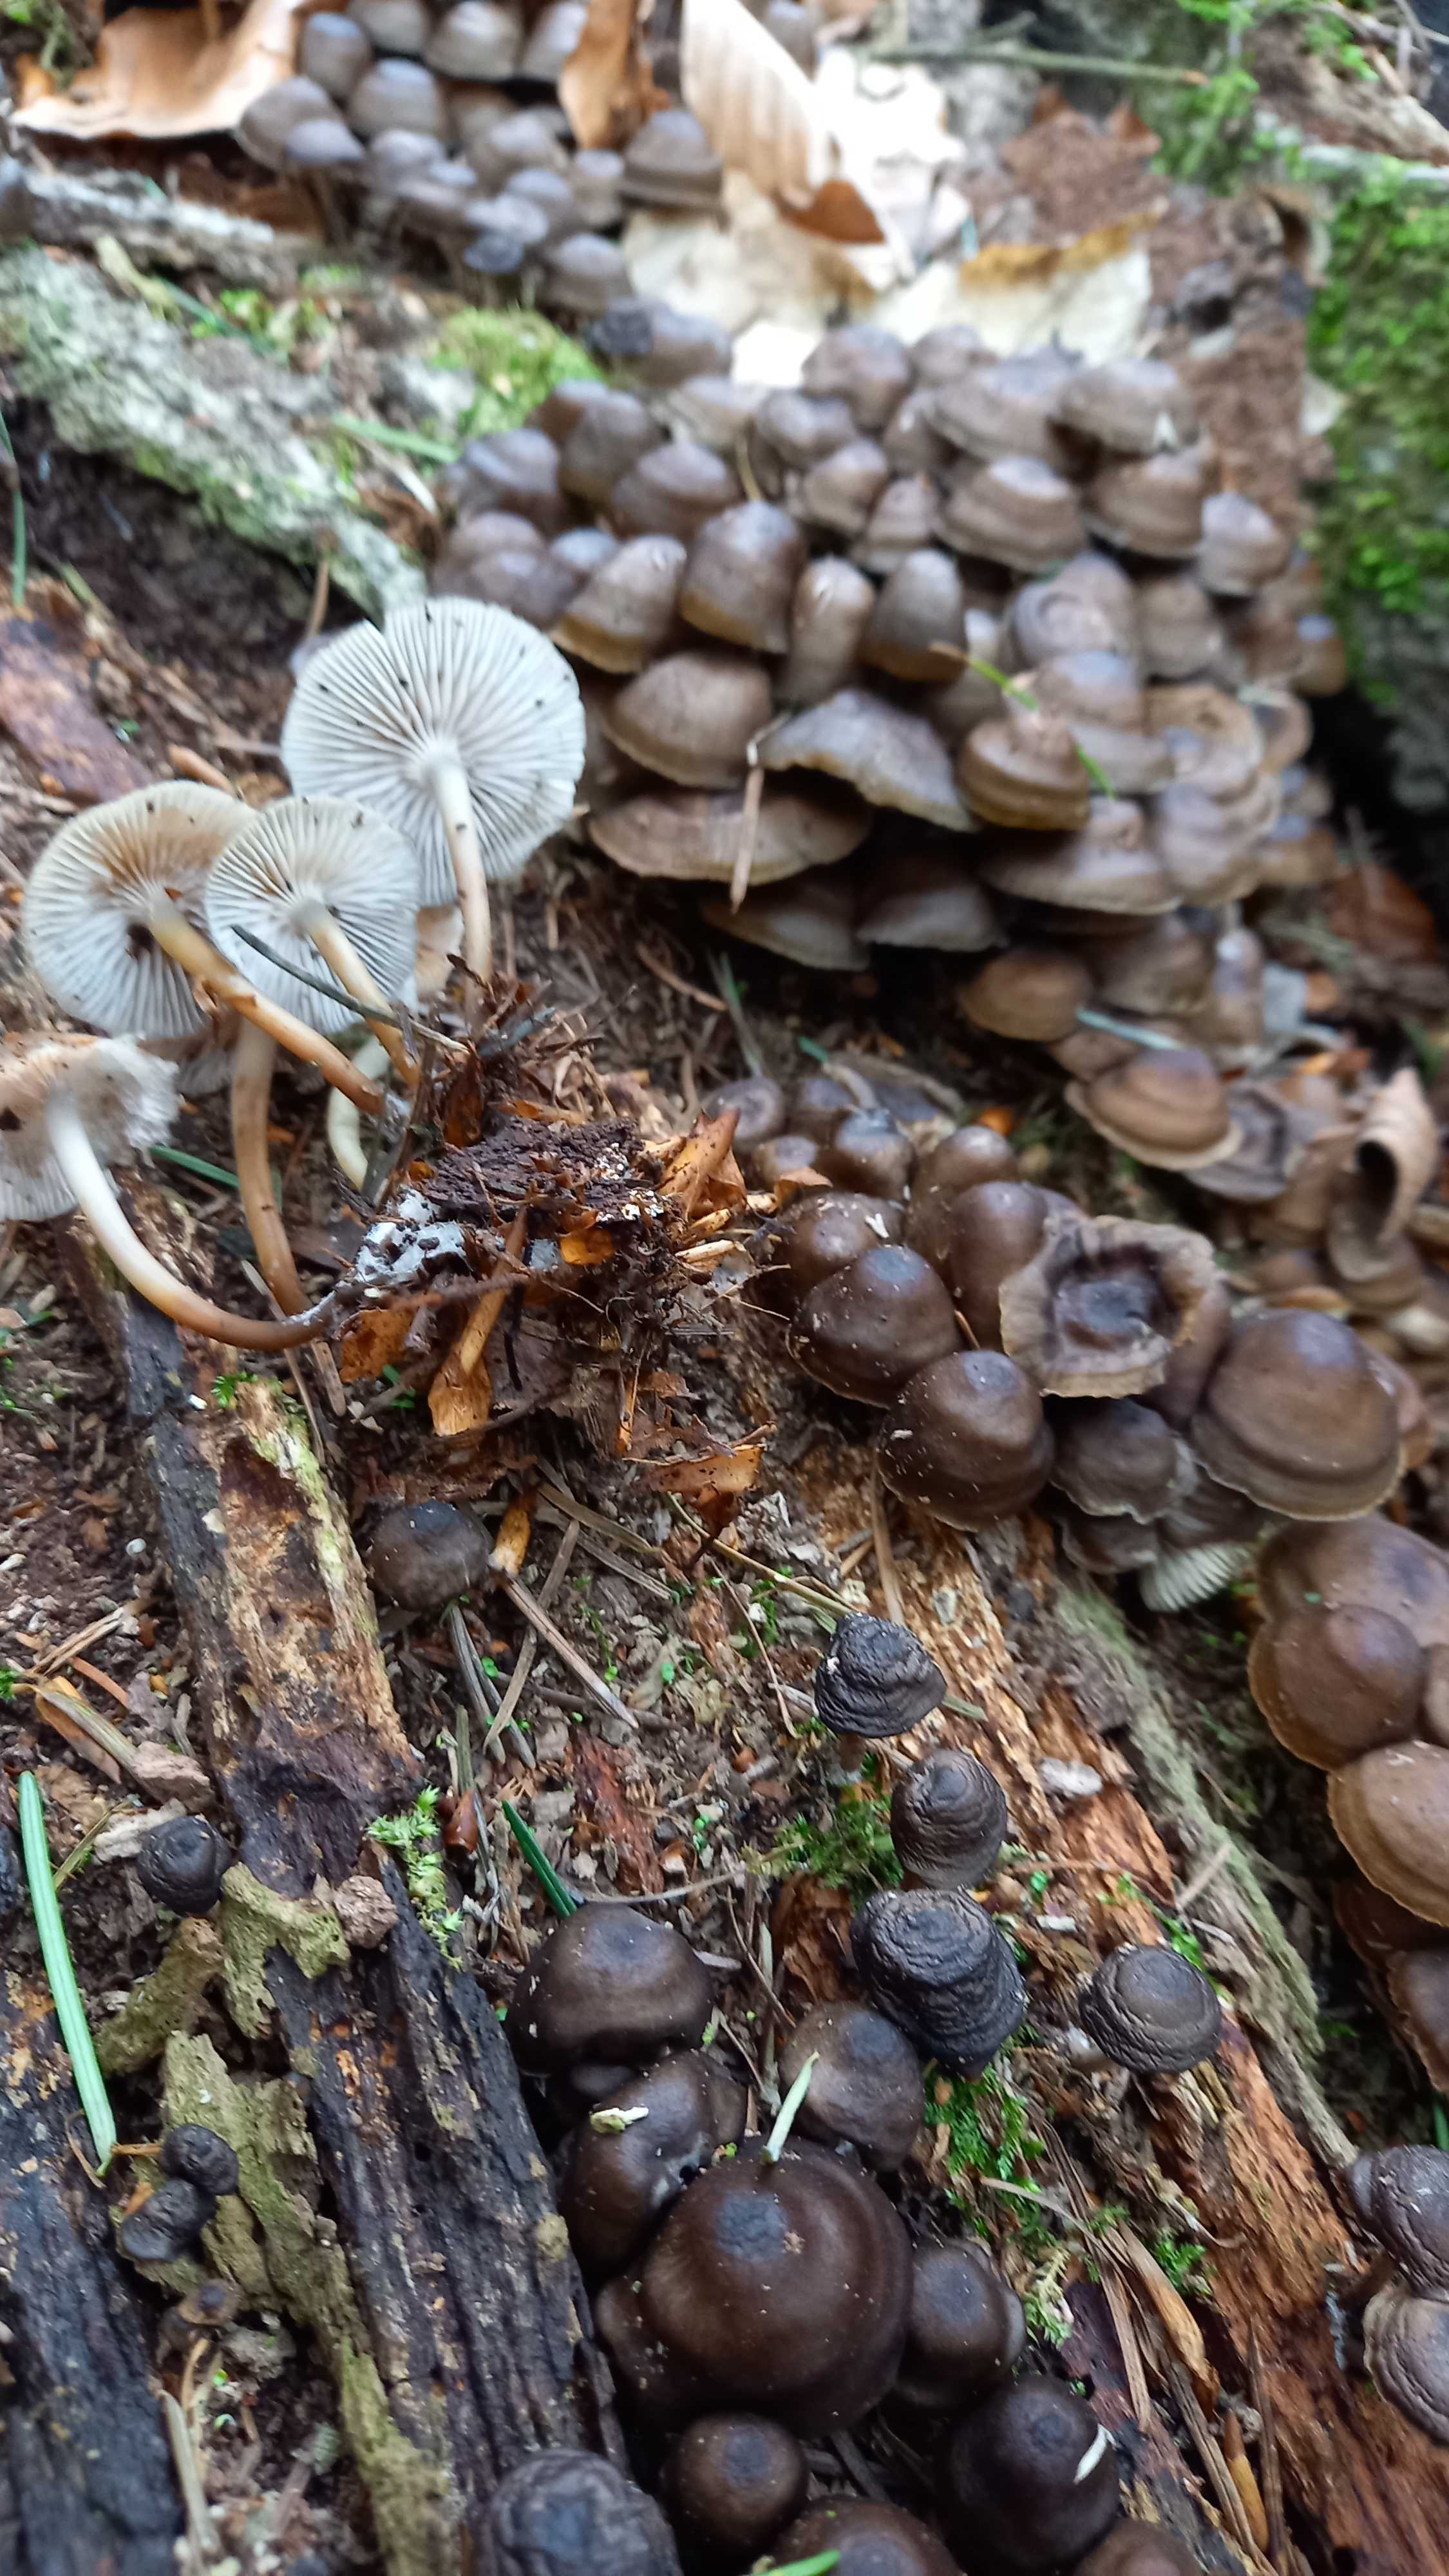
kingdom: Fungi
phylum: Basidiomycota
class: Agaricomycetes
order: Agaricales
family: Mycenaceae
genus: Mycena
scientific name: Mycena tintinnabulum
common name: vinter-huesvamp
